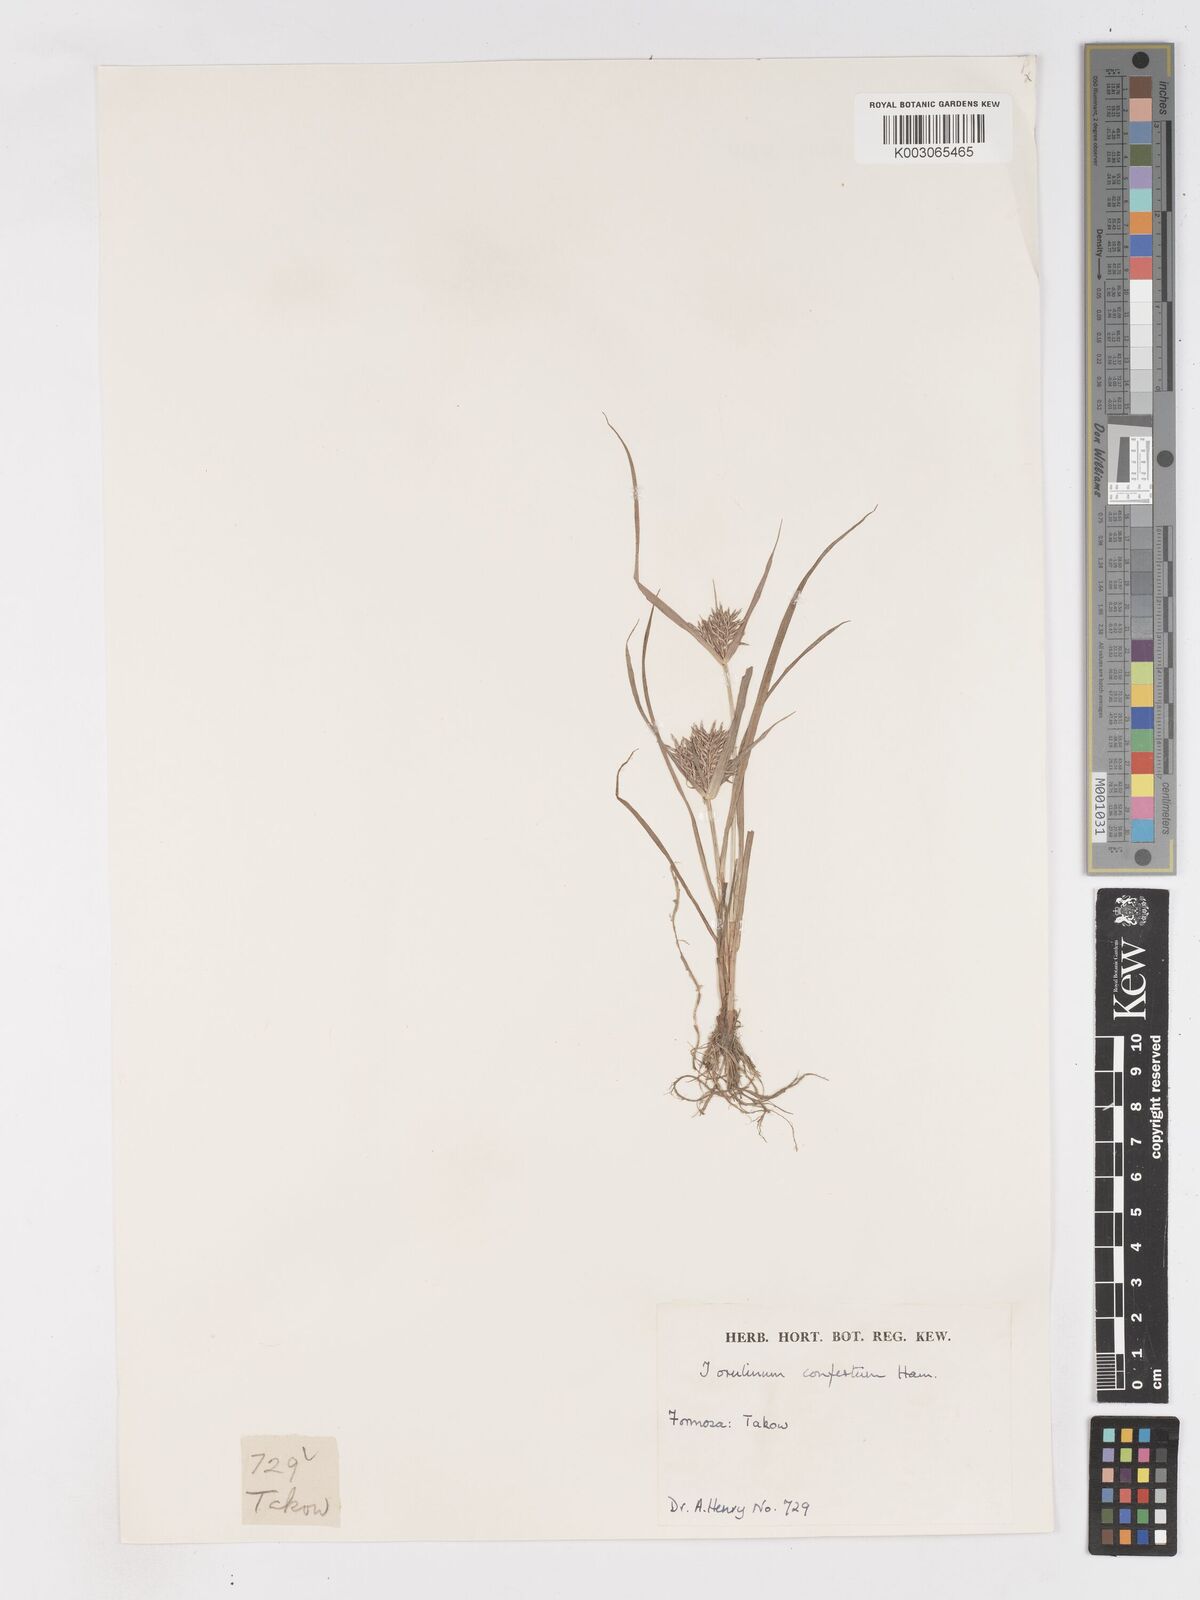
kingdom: Plantae
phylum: Tracheophyta
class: Liliopsida
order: Poales
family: Cyperaceae
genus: Cyperus
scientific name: Cyperus odoratus
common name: Fragrant flatsedge
